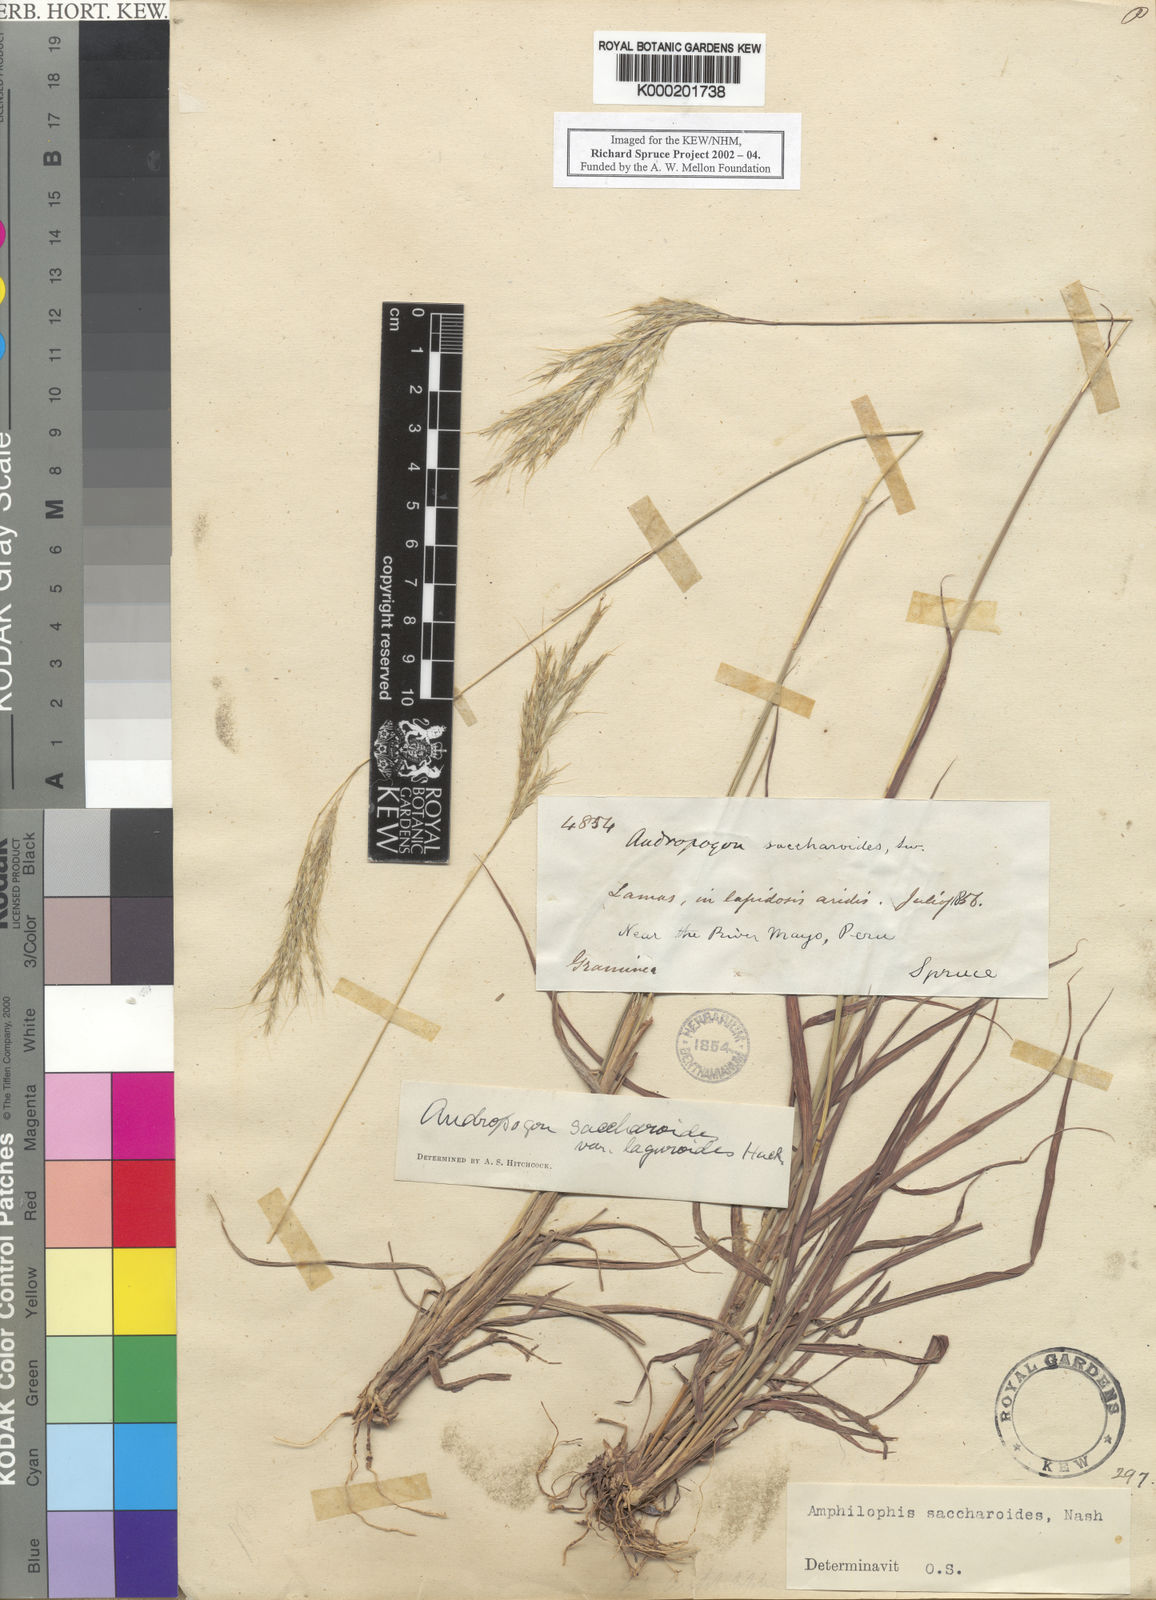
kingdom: Plantae
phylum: Tracheophyta
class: Liliopsida
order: Poales
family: Poaceae
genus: Bothriochloa
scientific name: Bothriochloa saccharoides
